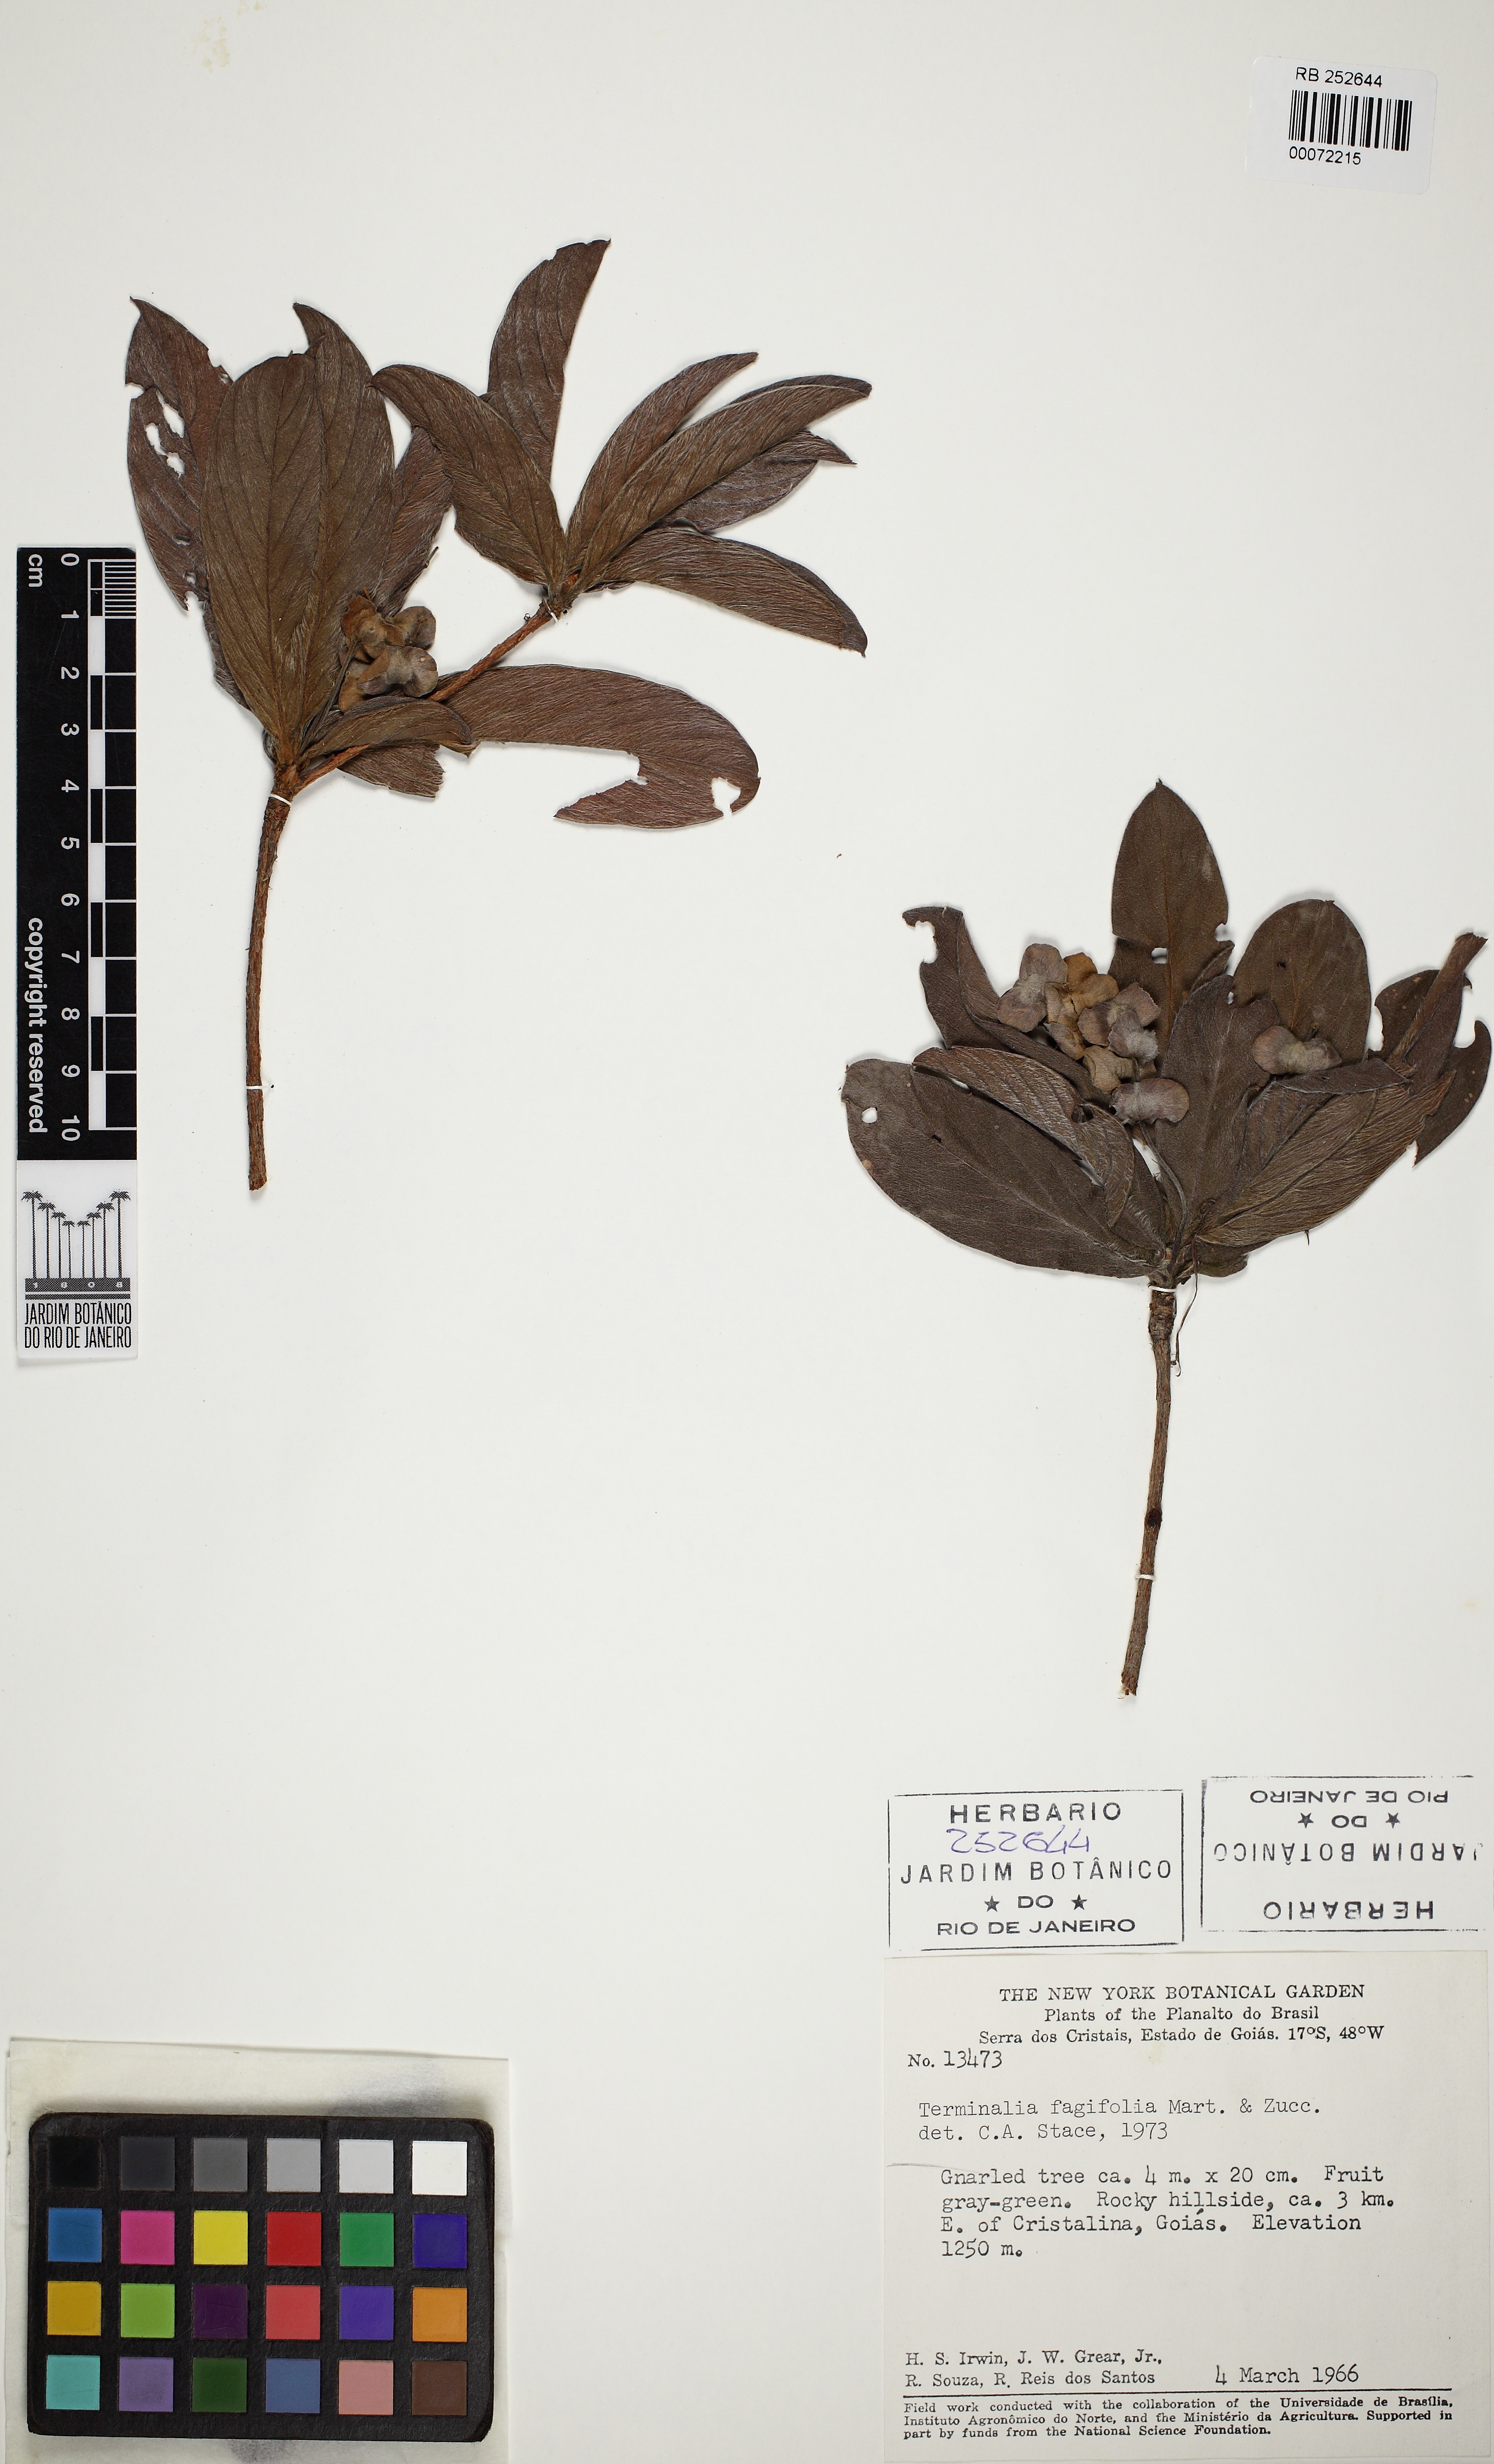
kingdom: Plantae
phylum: Tracheophyta
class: Magnoliopsida
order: Myrtales
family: Combretaceae
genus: Terminalia
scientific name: Terminalia fagifolia
